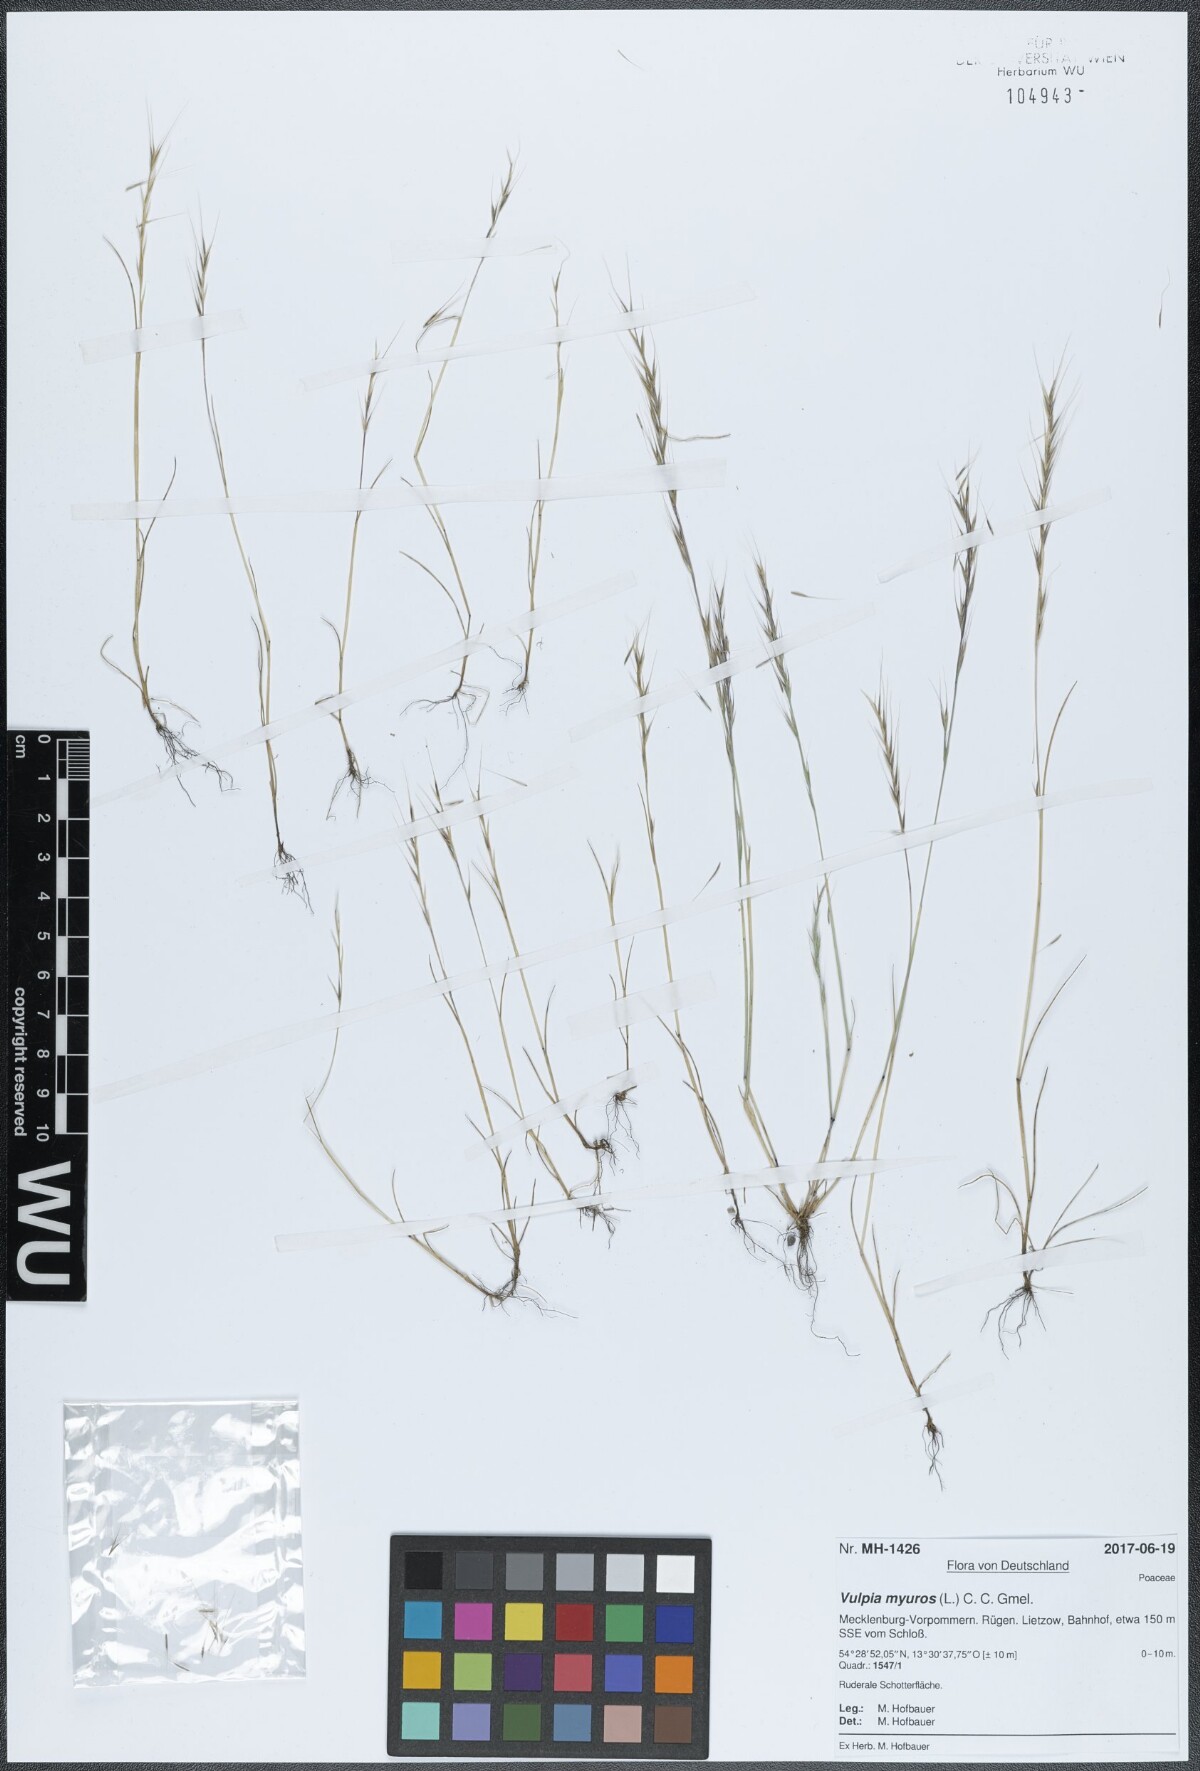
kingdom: Plantae
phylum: Tracheophyta
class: Liliopsida
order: Poales
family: Poaceae
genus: Festuca
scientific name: Festuca myuros
